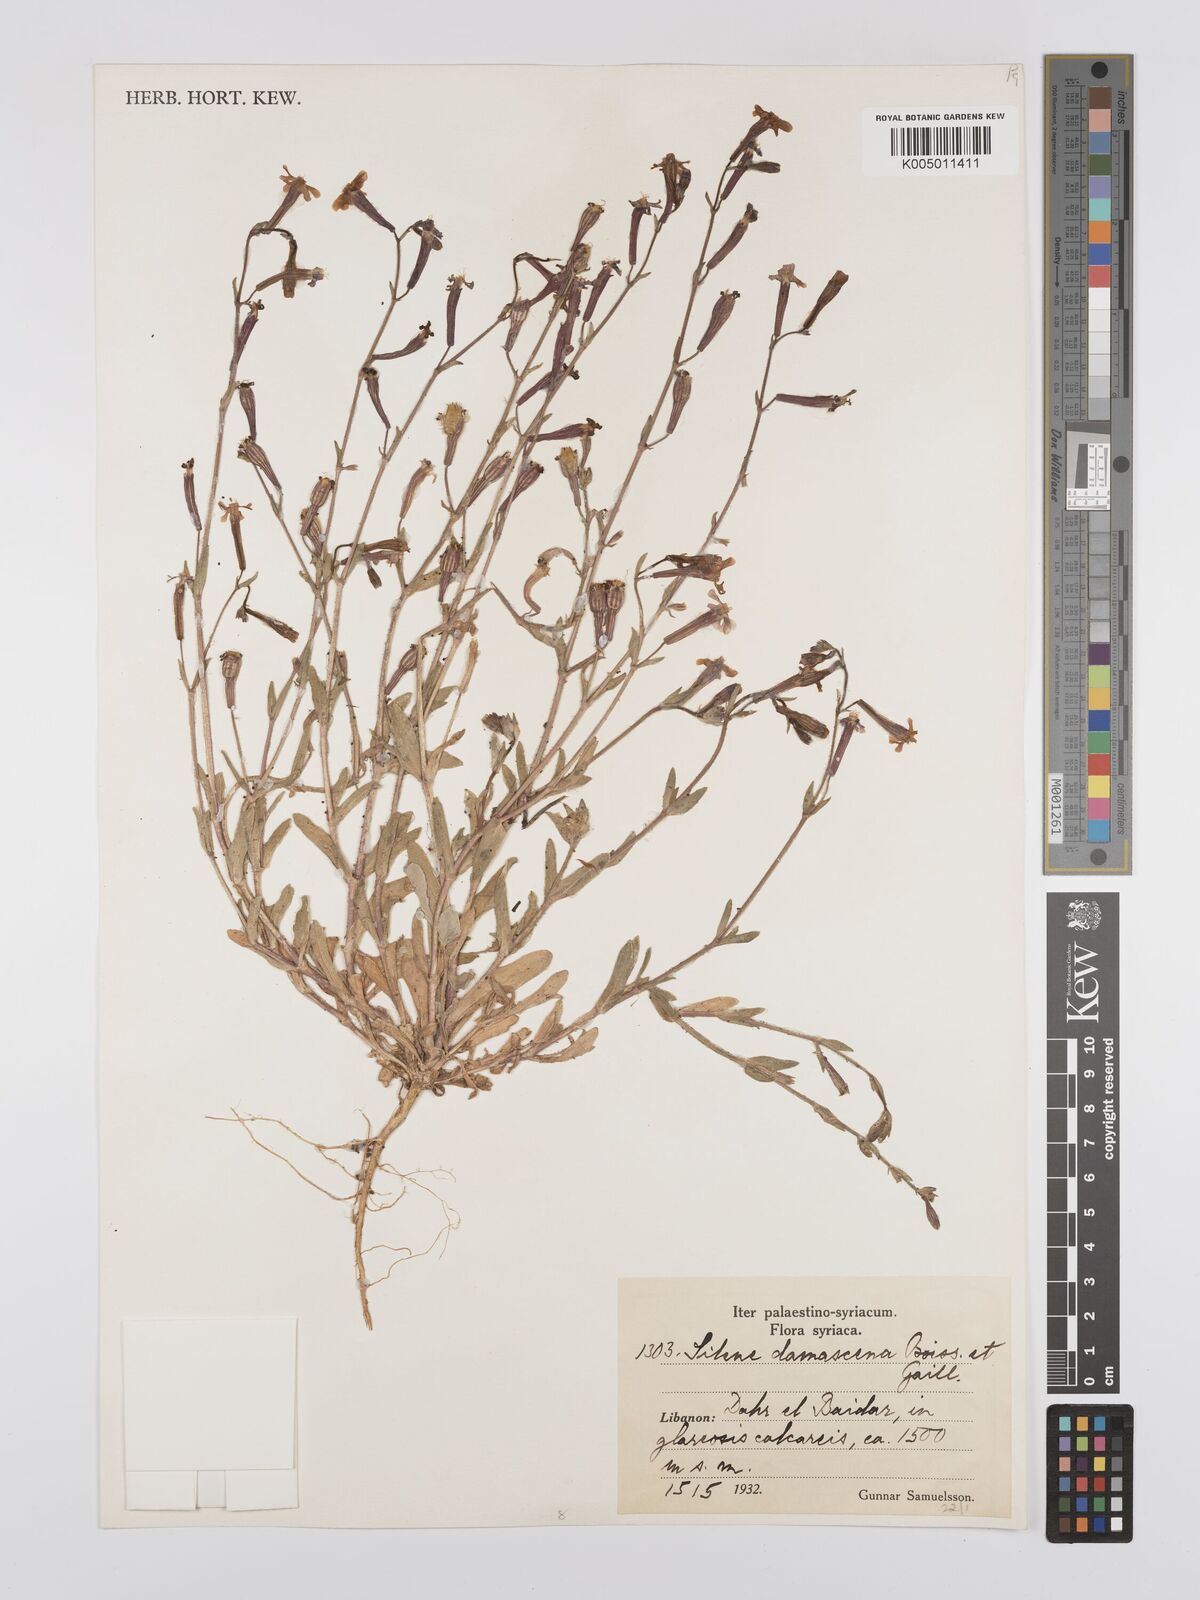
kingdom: Plantae
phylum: Tracheophyta
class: Magnoliopsida
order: Caryophyllales
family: Caryophyllaceae
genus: Silene
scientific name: Silene damascena
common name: Damascus catchfly
